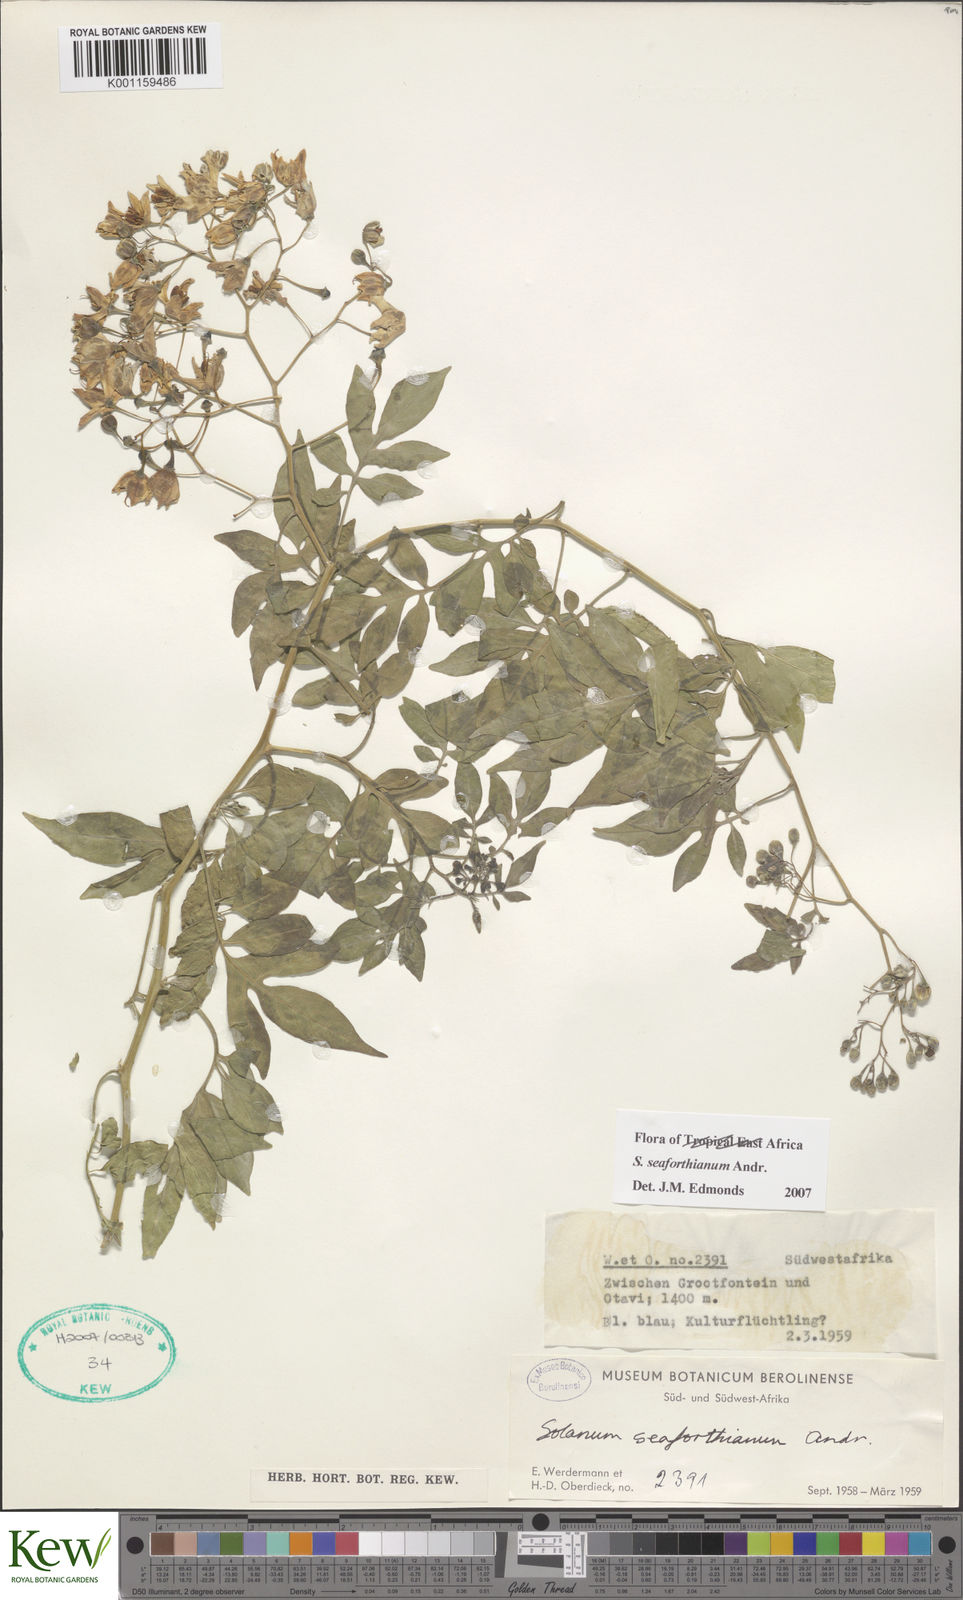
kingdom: Plantae
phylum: Tracheophyta
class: Magnoliopsida
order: Solanales
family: Solanaceae
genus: Solanum
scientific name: Solanum seaforthianum
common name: Brazilian nightshade
